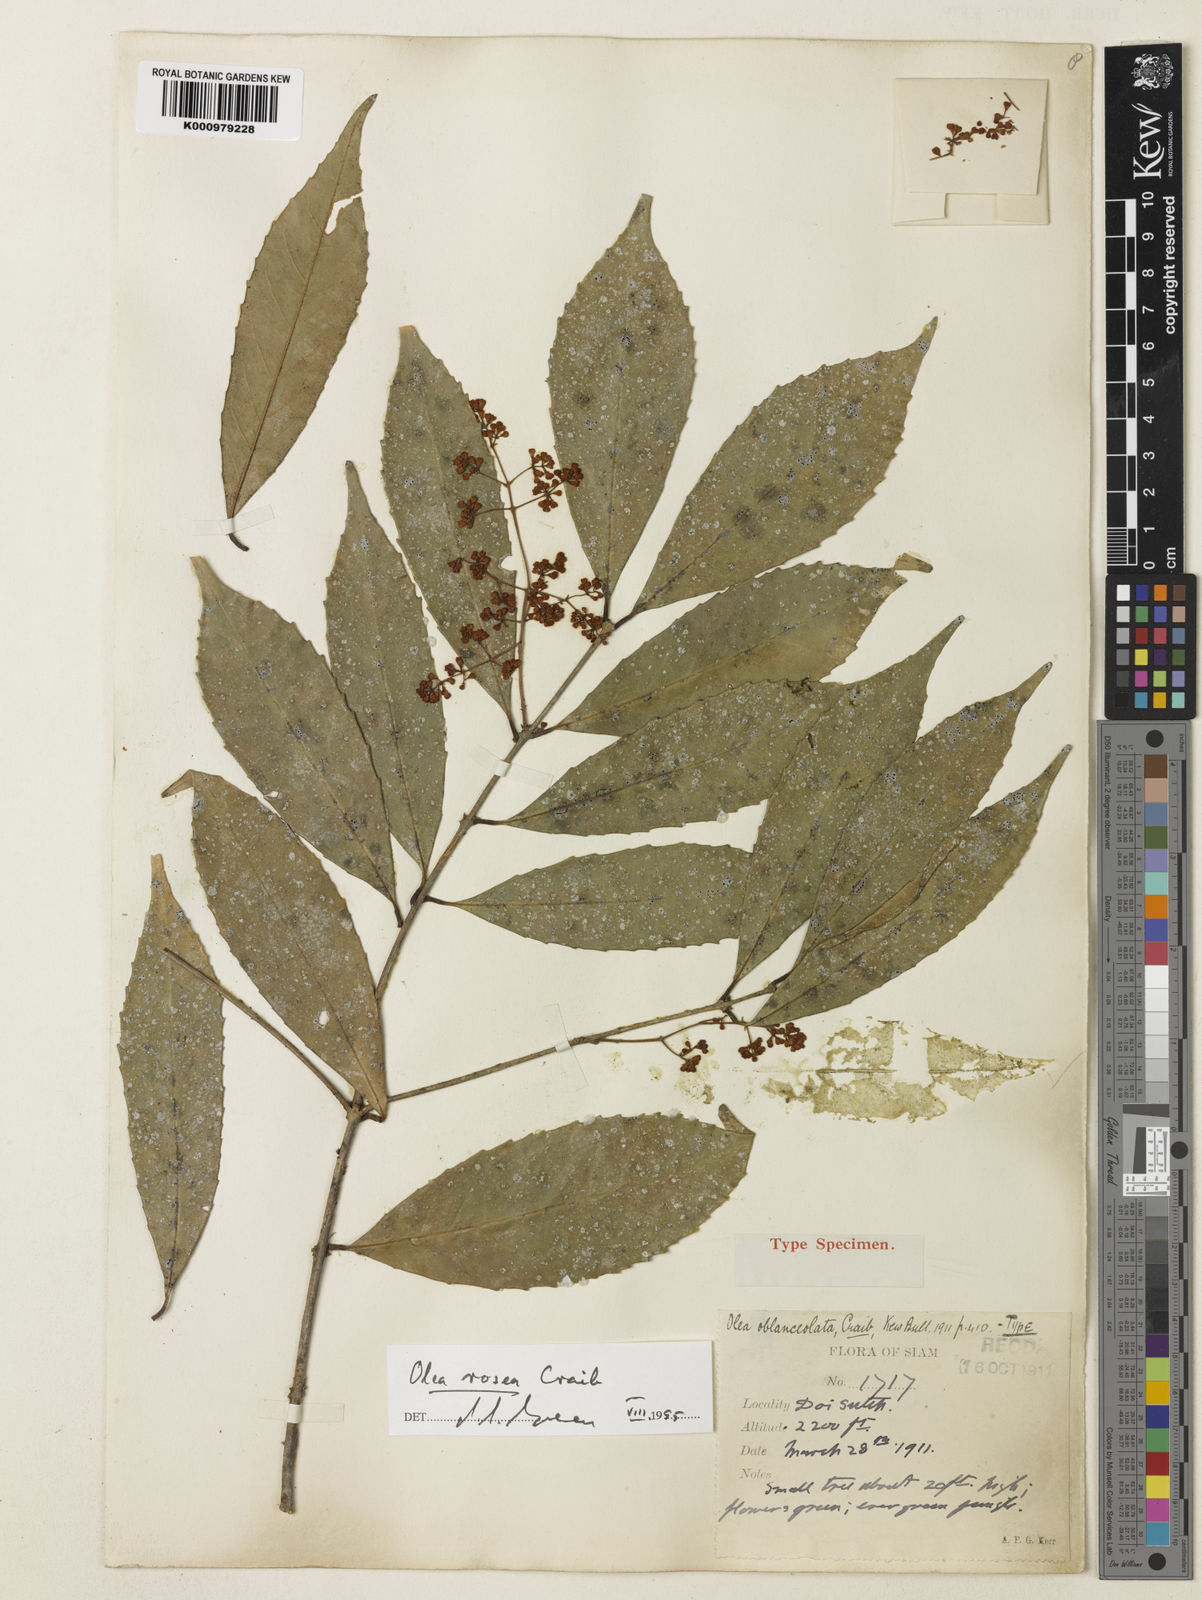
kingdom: Plantae
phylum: Tracheophyta
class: Magnoliopsida
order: Lamiales
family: Oleaceae
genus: Tetrapilus
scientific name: Tetrapilus roseus
